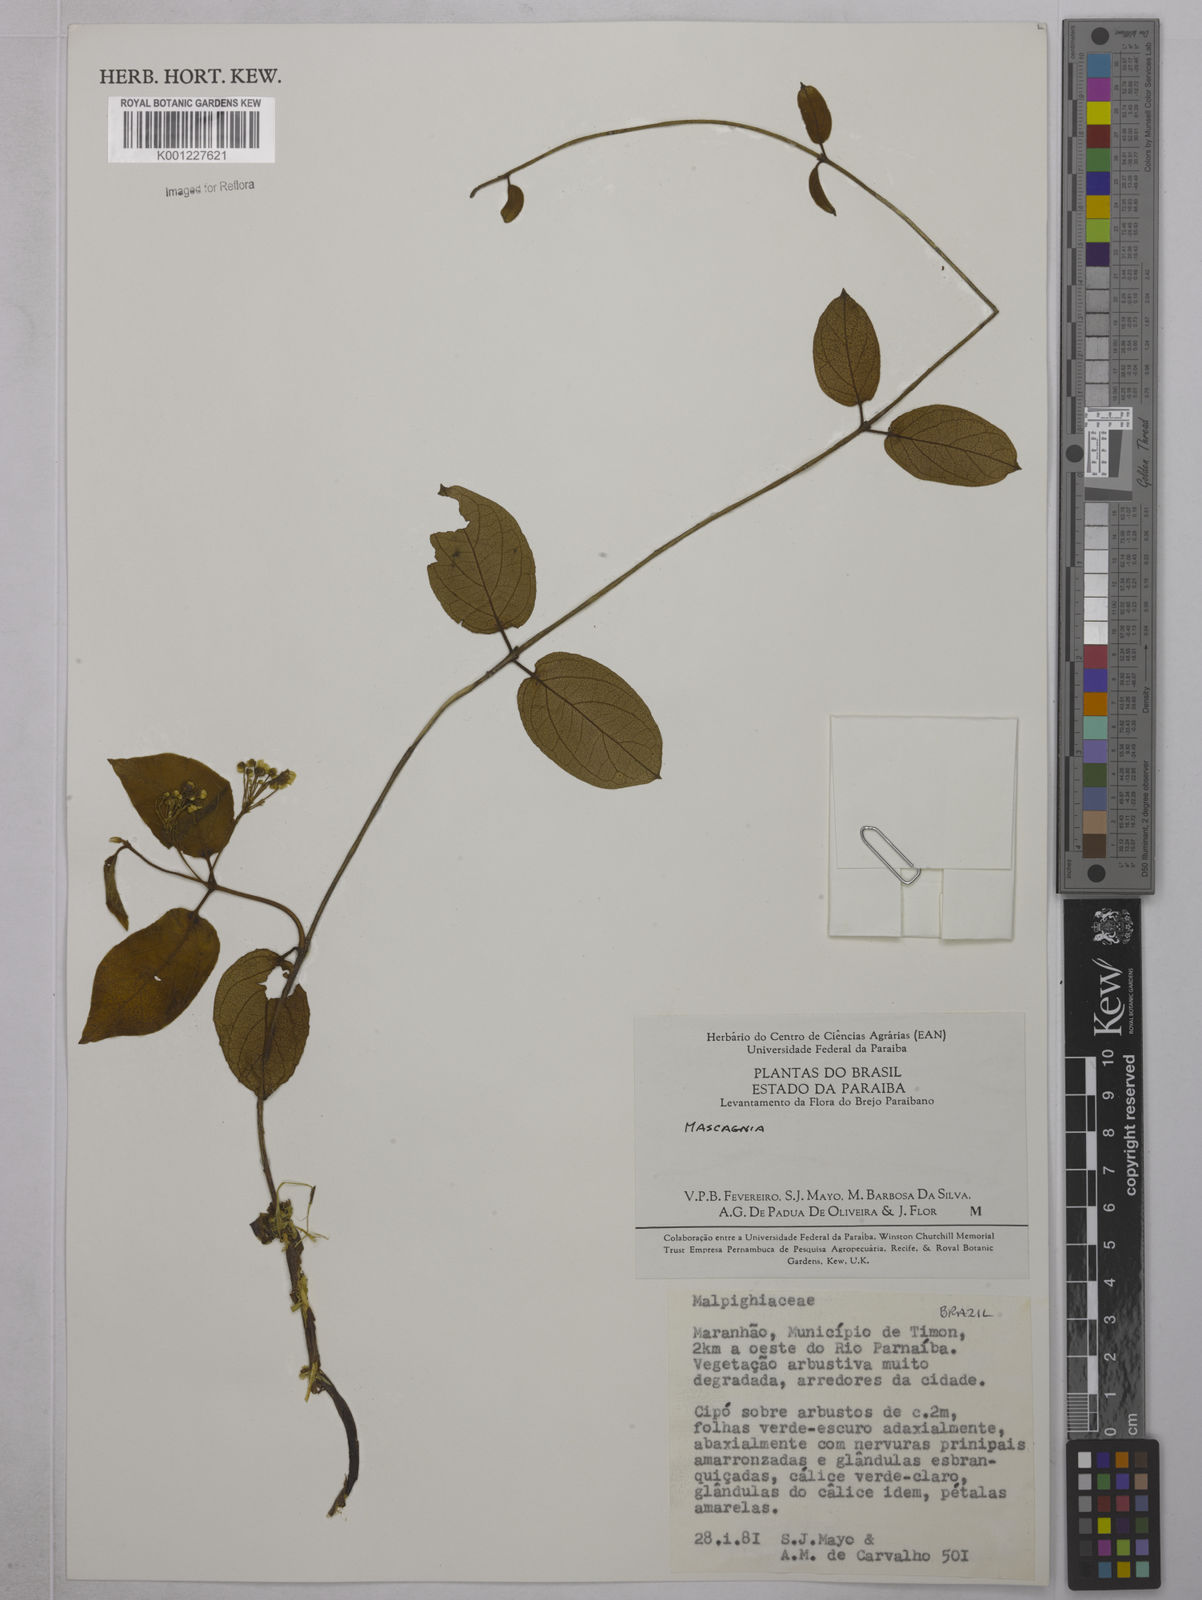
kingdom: Plantae
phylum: Tracheophyta
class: Magnoliopsida
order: Malpighiales
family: Malpighiaceae
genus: Mascagnia
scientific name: Mascagnia
